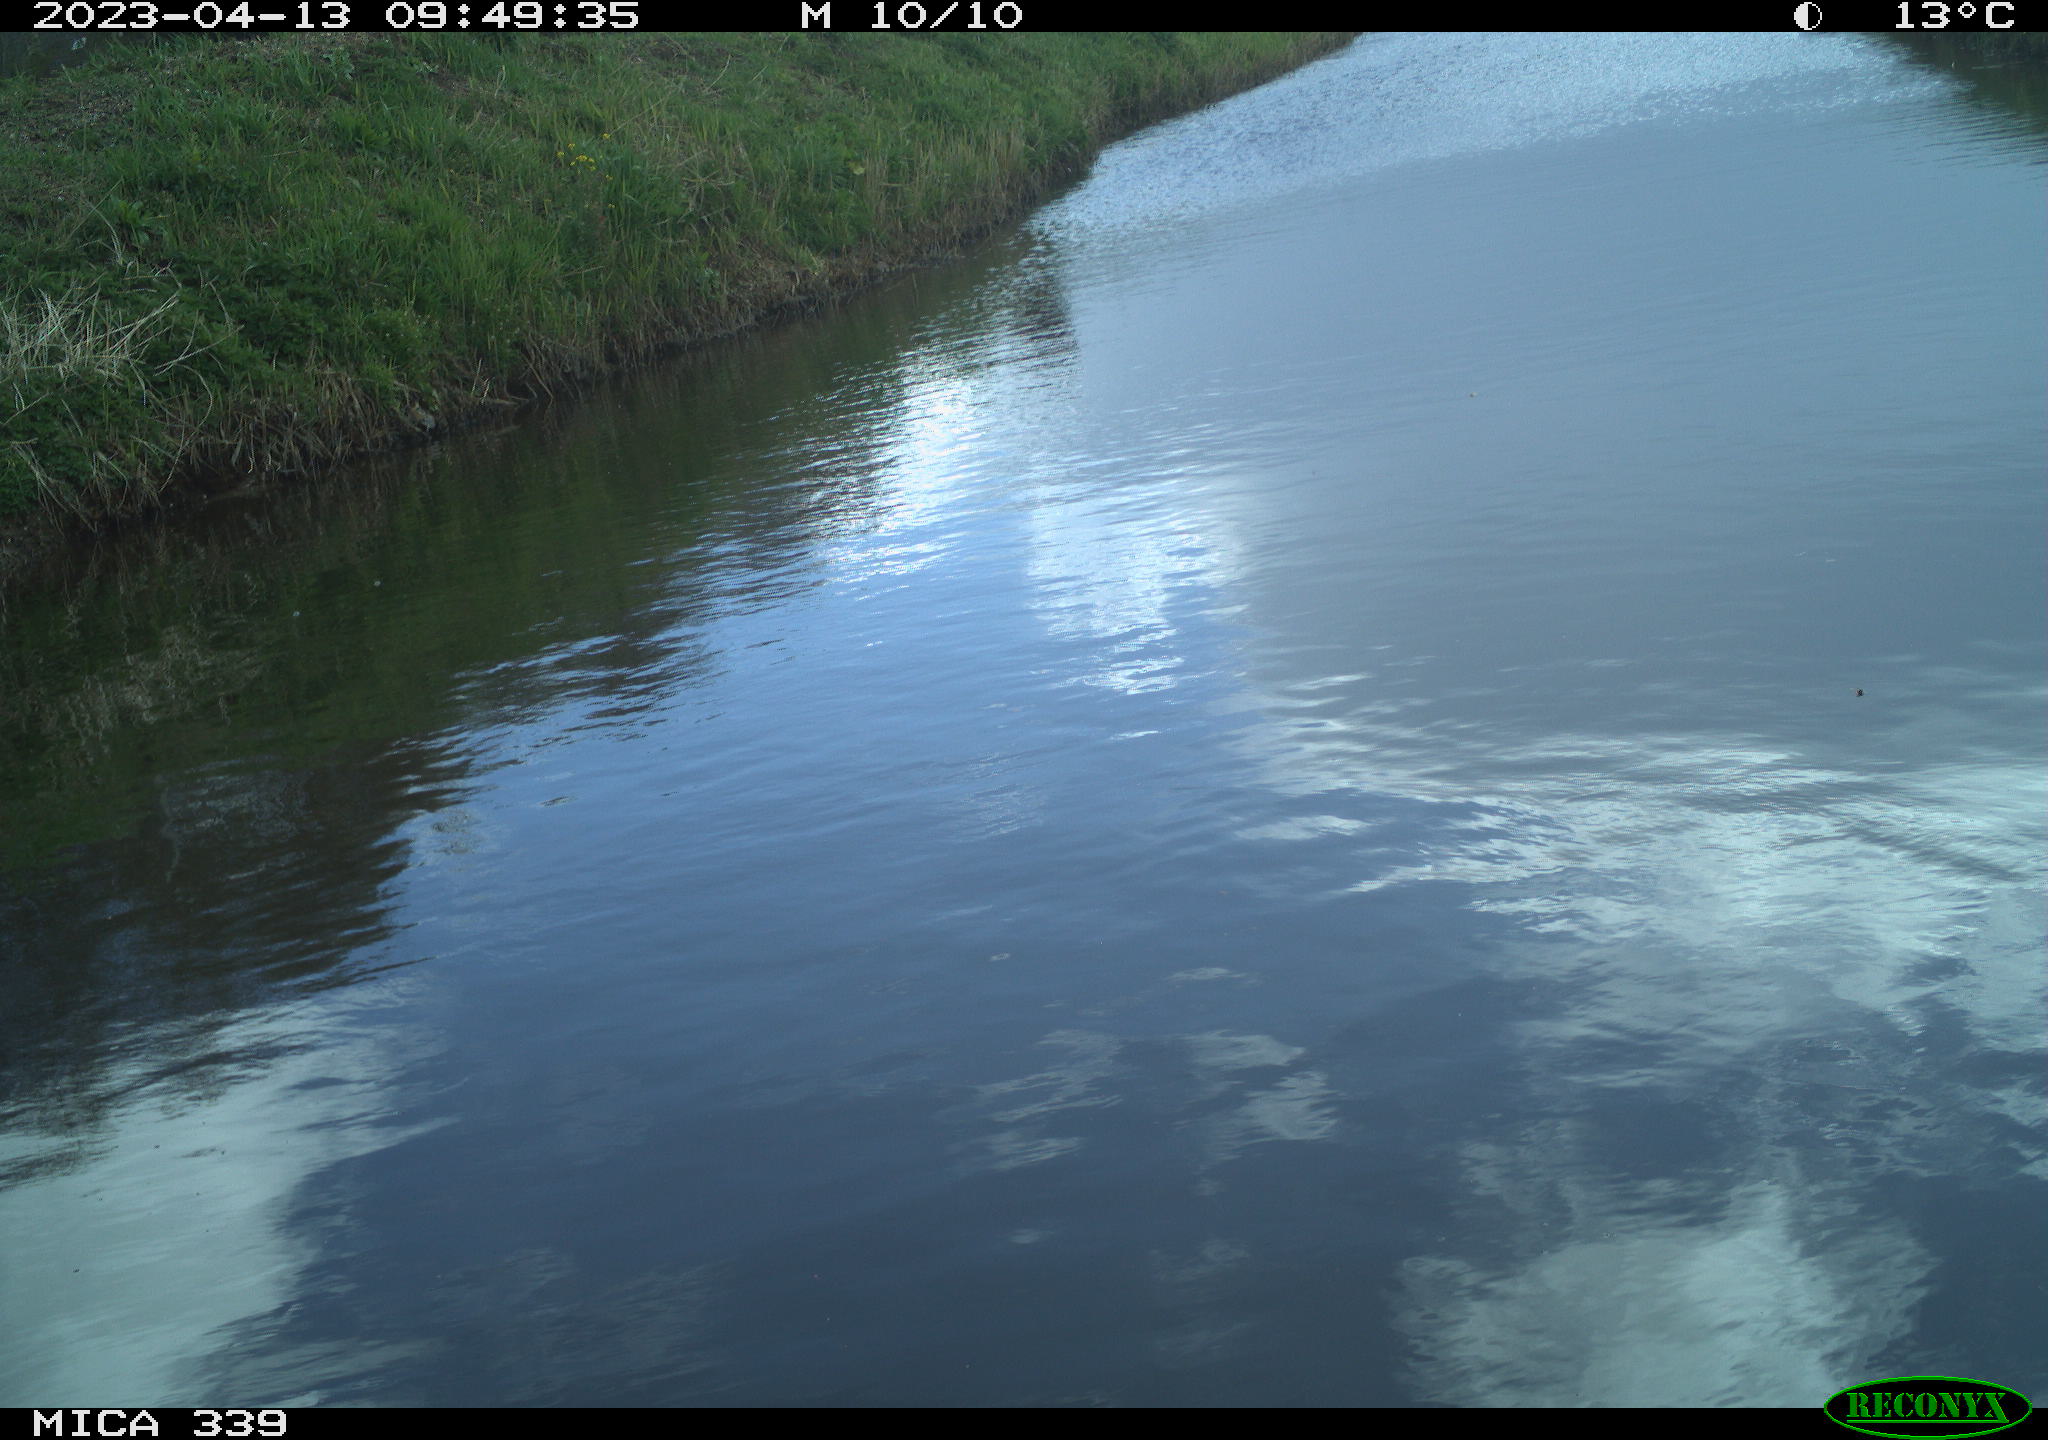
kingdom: Animalia
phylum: Chordata
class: Aves
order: Pelecaniformes
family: Ardeidae
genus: Ardea
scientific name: Ardea
